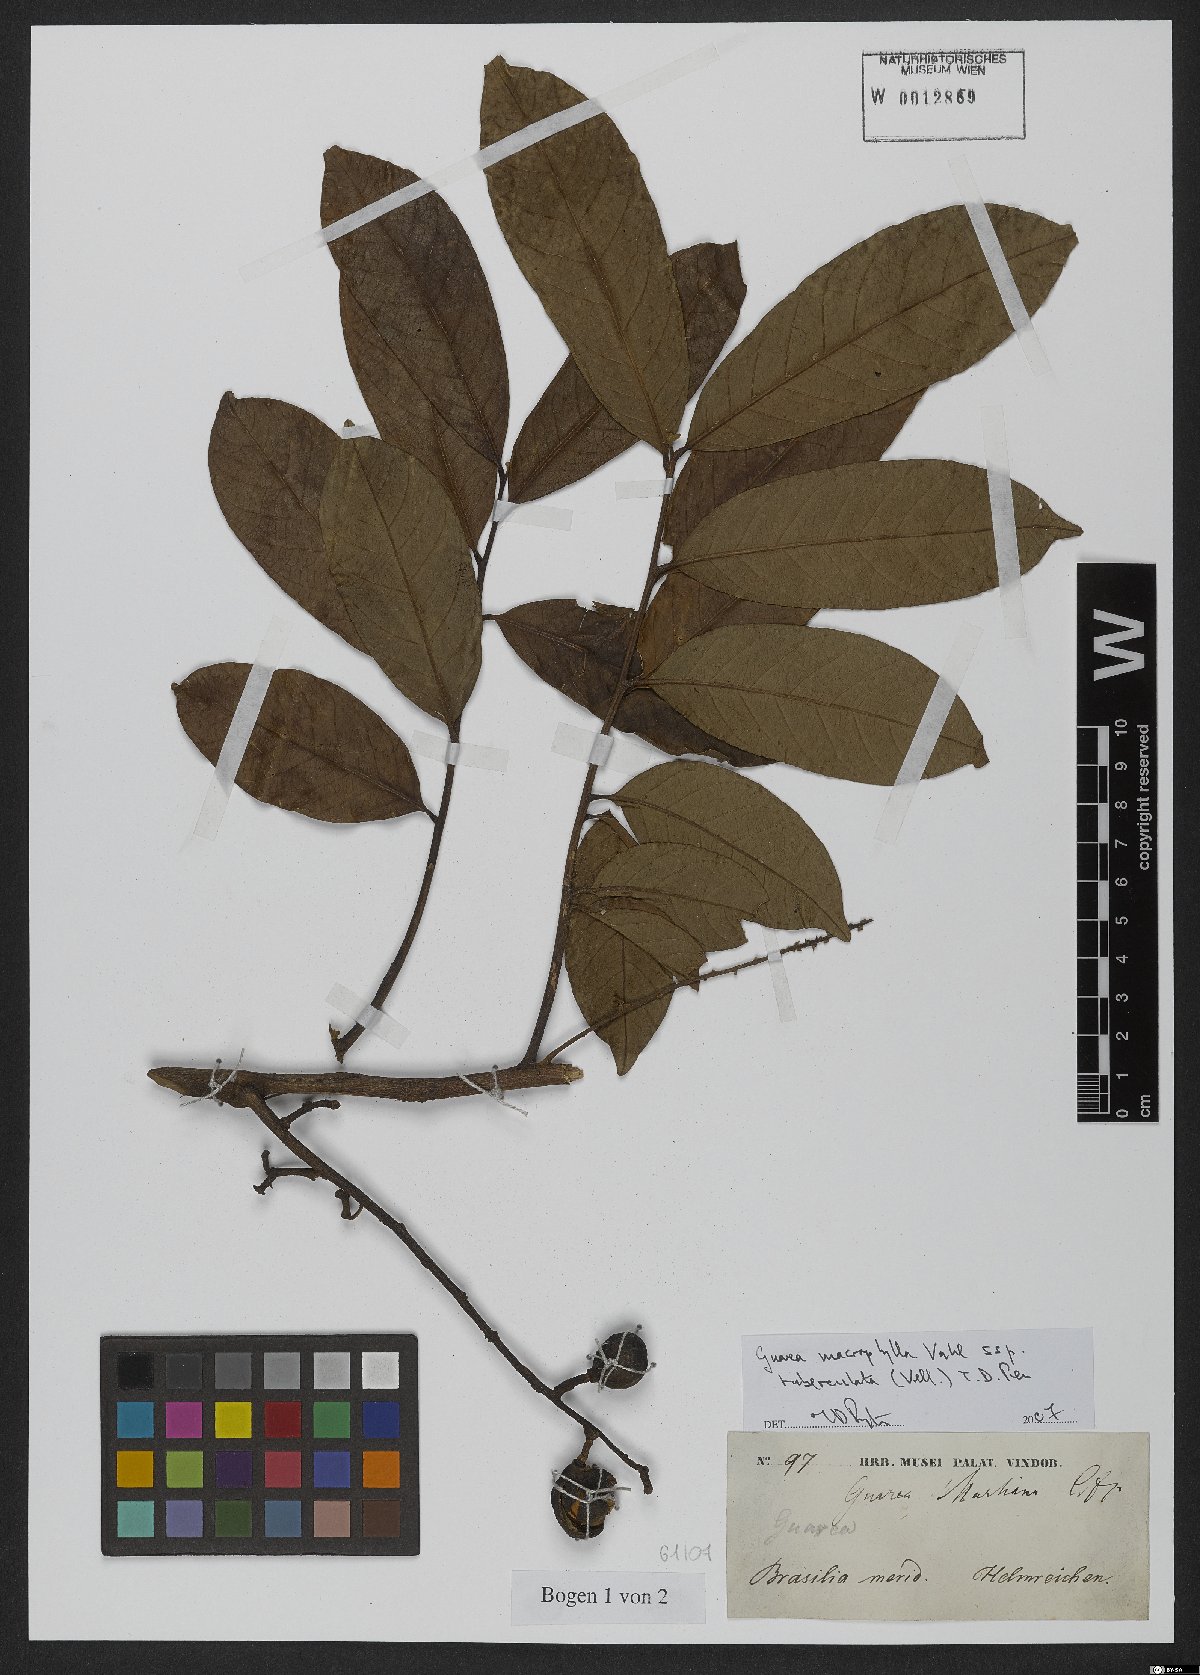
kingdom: Plantae
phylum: Tracheophyta
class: Magnoliopsida
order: Sapindales
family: Meliaceae
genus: Guarea
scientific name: Guarea macrophylla
